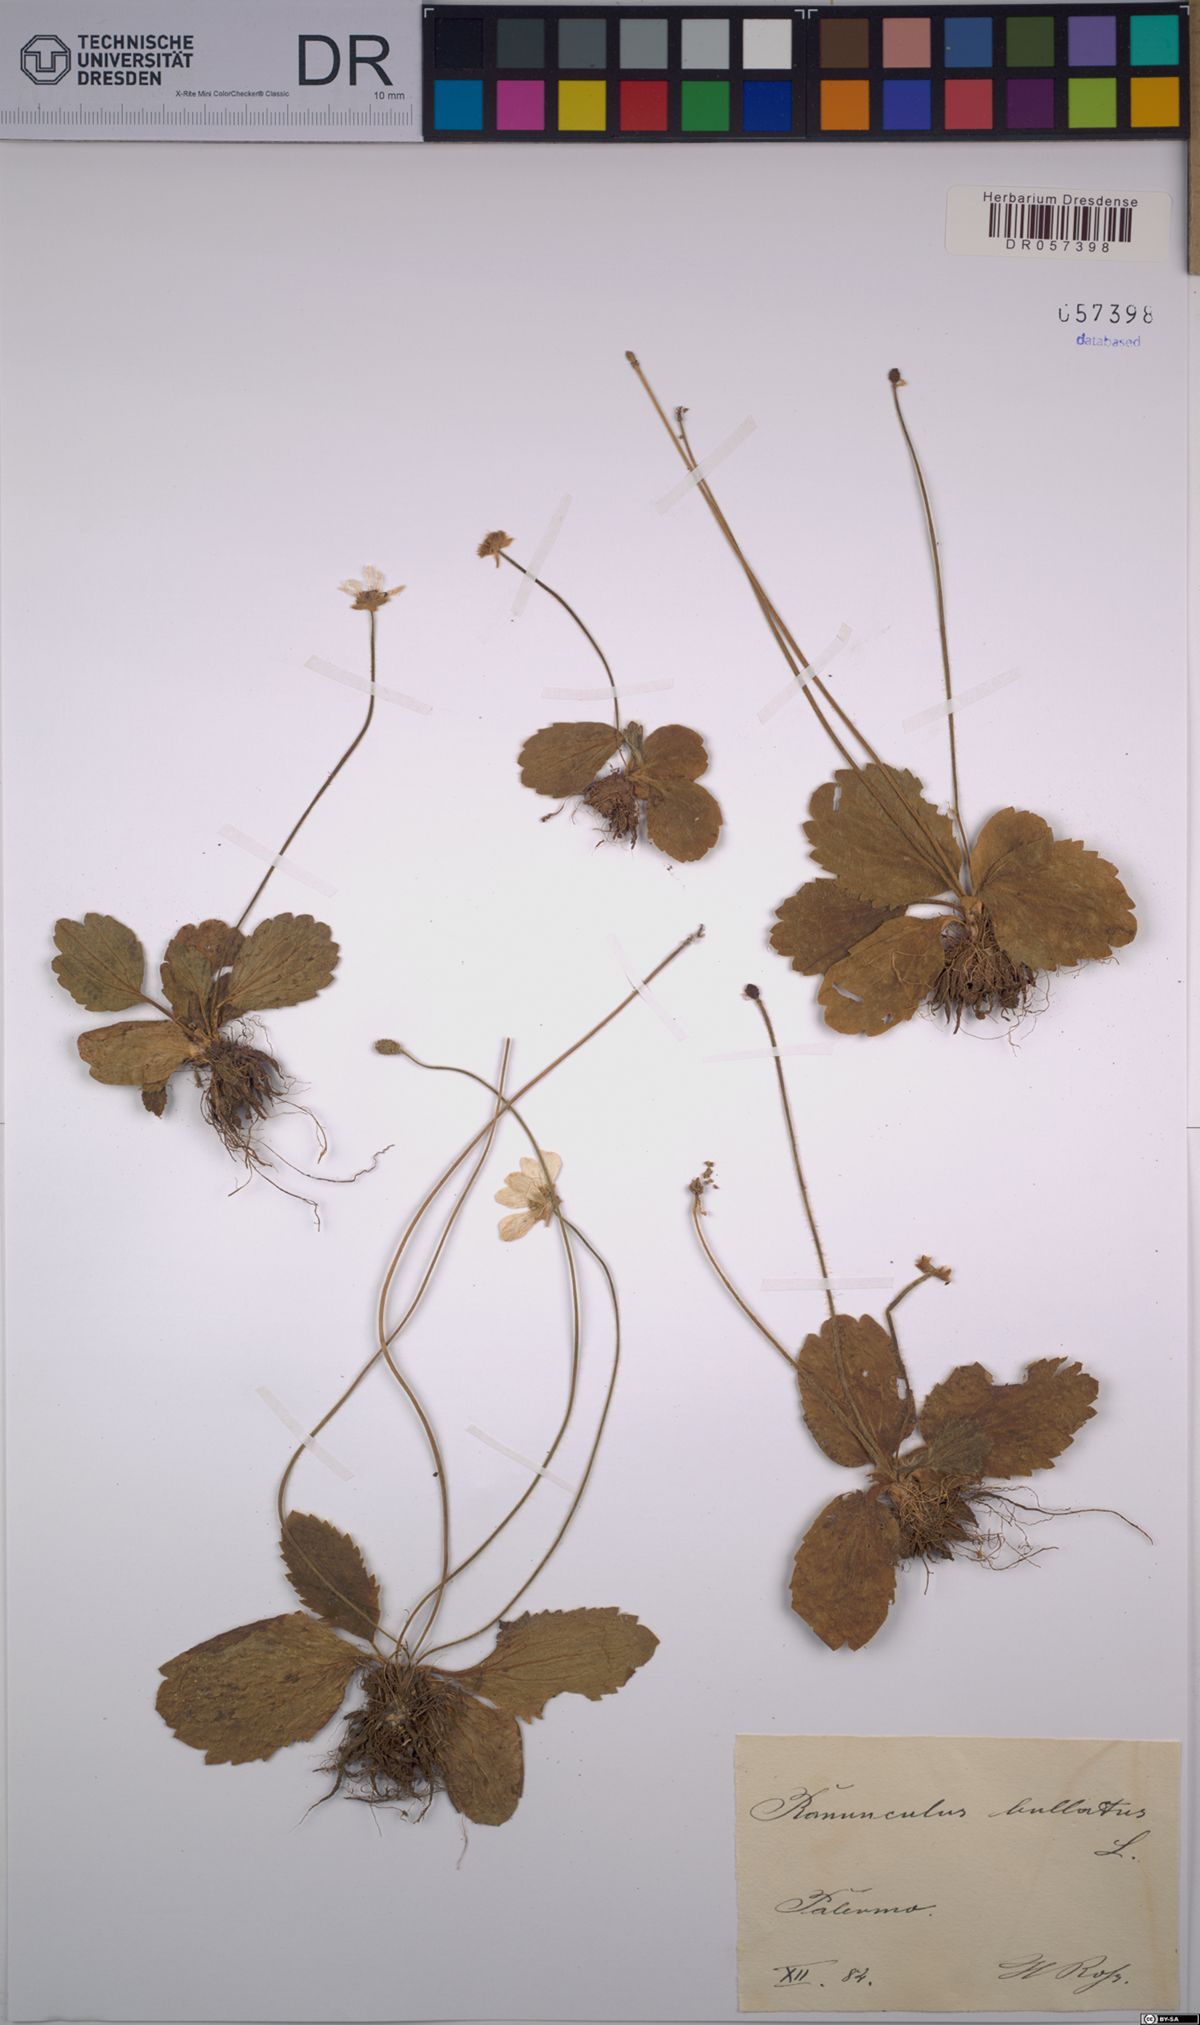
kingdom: Plantae
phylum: Tracheophyta
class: Magnoliopsida
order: Ranunculales
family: Ranunculaceae
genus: Ranunculus
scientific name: Ranunculus bullatus
